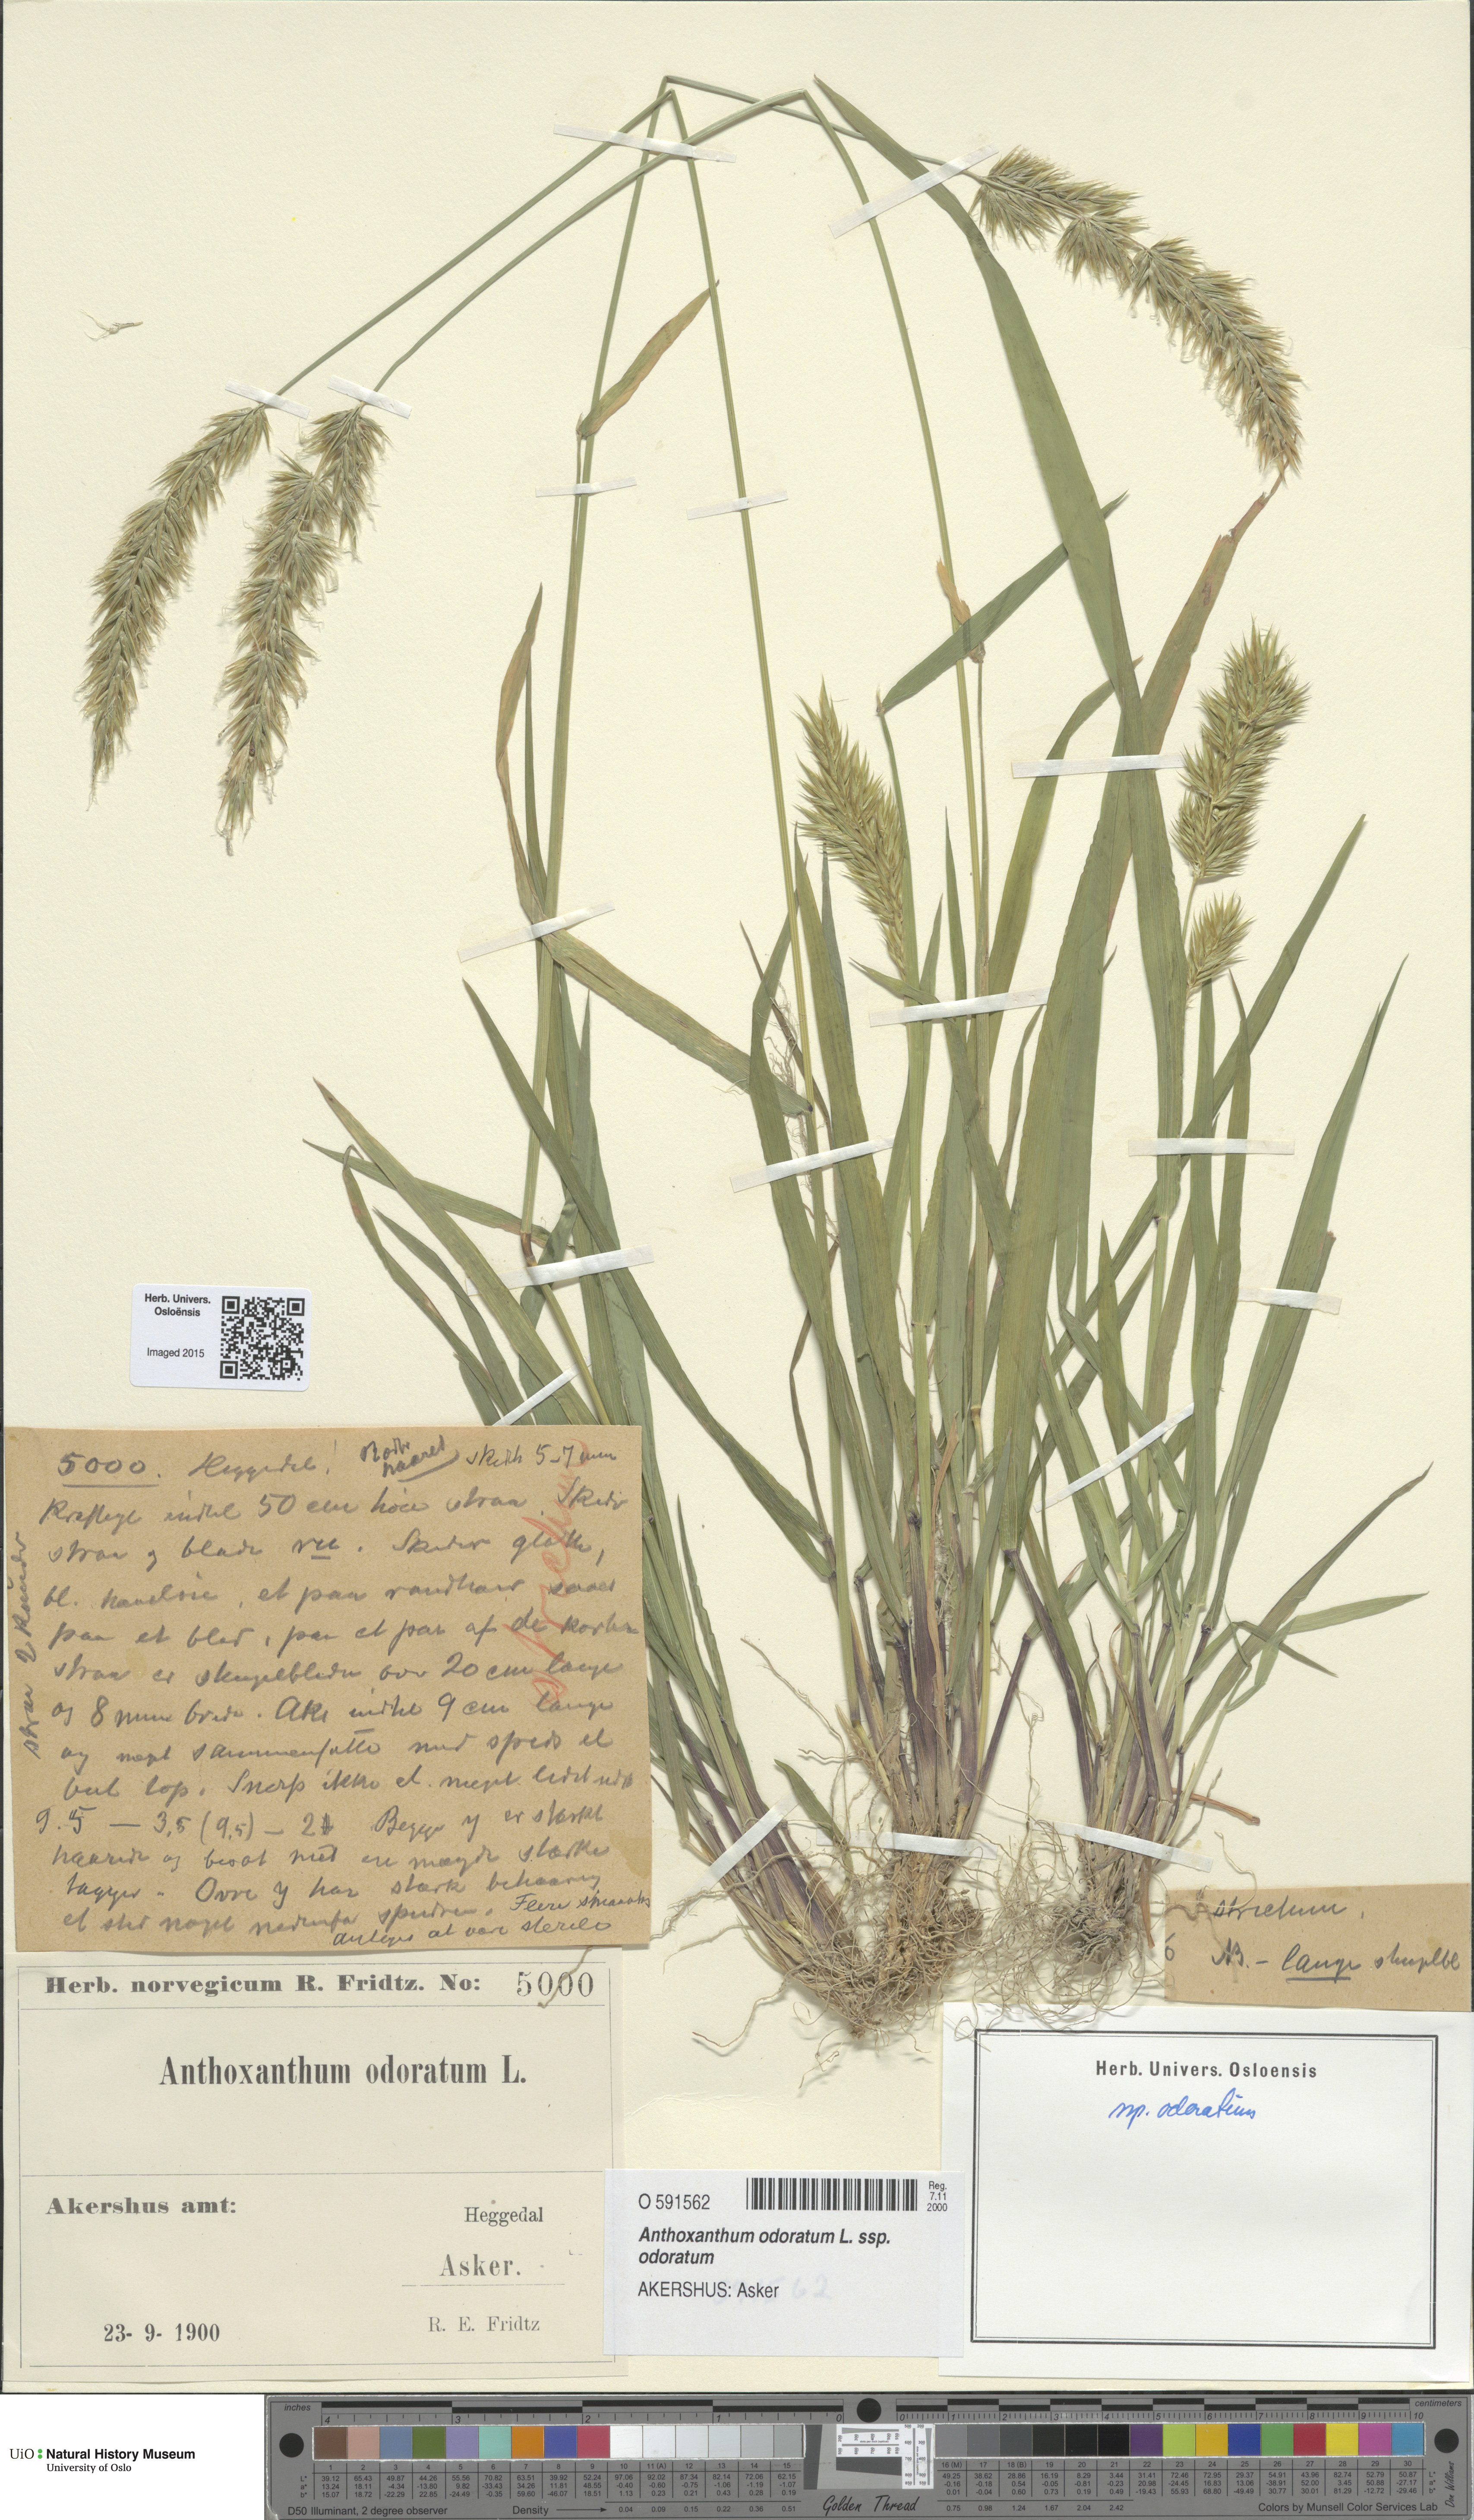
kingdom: Plantae
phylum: Tracheophyta
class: Liliopsida
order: Poales
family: Poaceae
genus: Anthoxanthum
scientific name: Anthoxanthum odoratum
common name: Sweet vernalgrass
